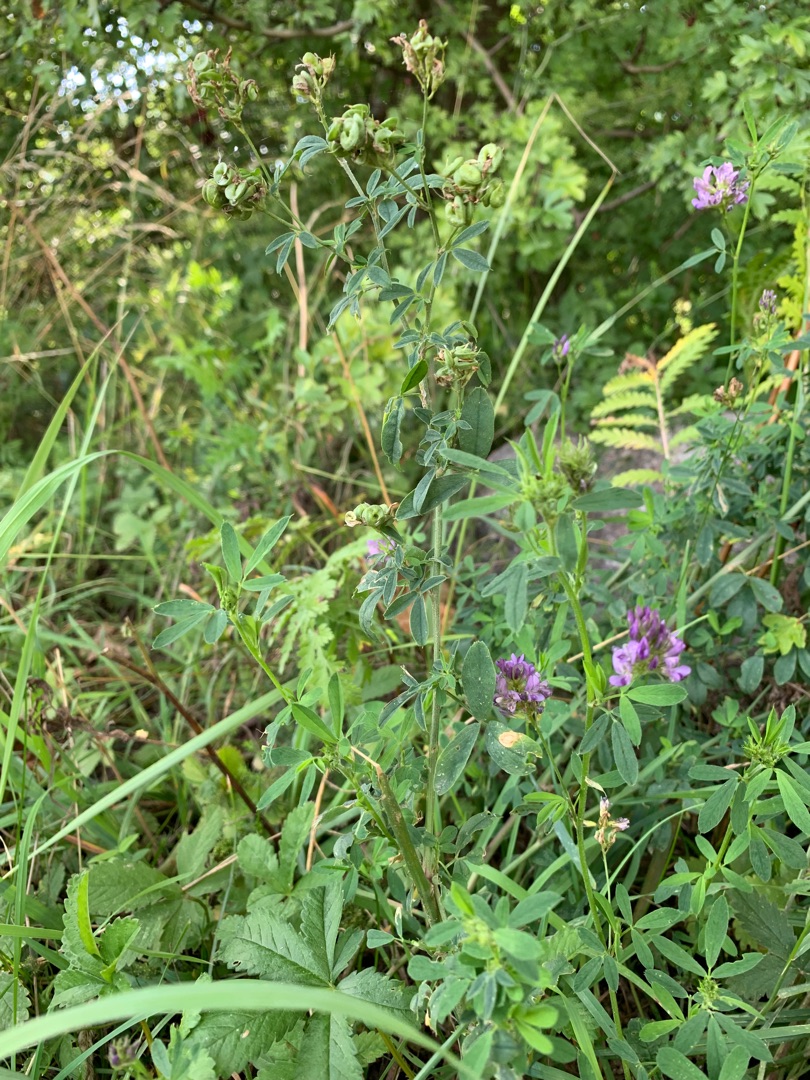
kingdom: Plantae
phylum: Tracheophyta
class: Magnoliopsida
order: Fabales
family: Fabaceae
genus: Medicago
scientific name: Medicago sativa
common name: Lucerne
